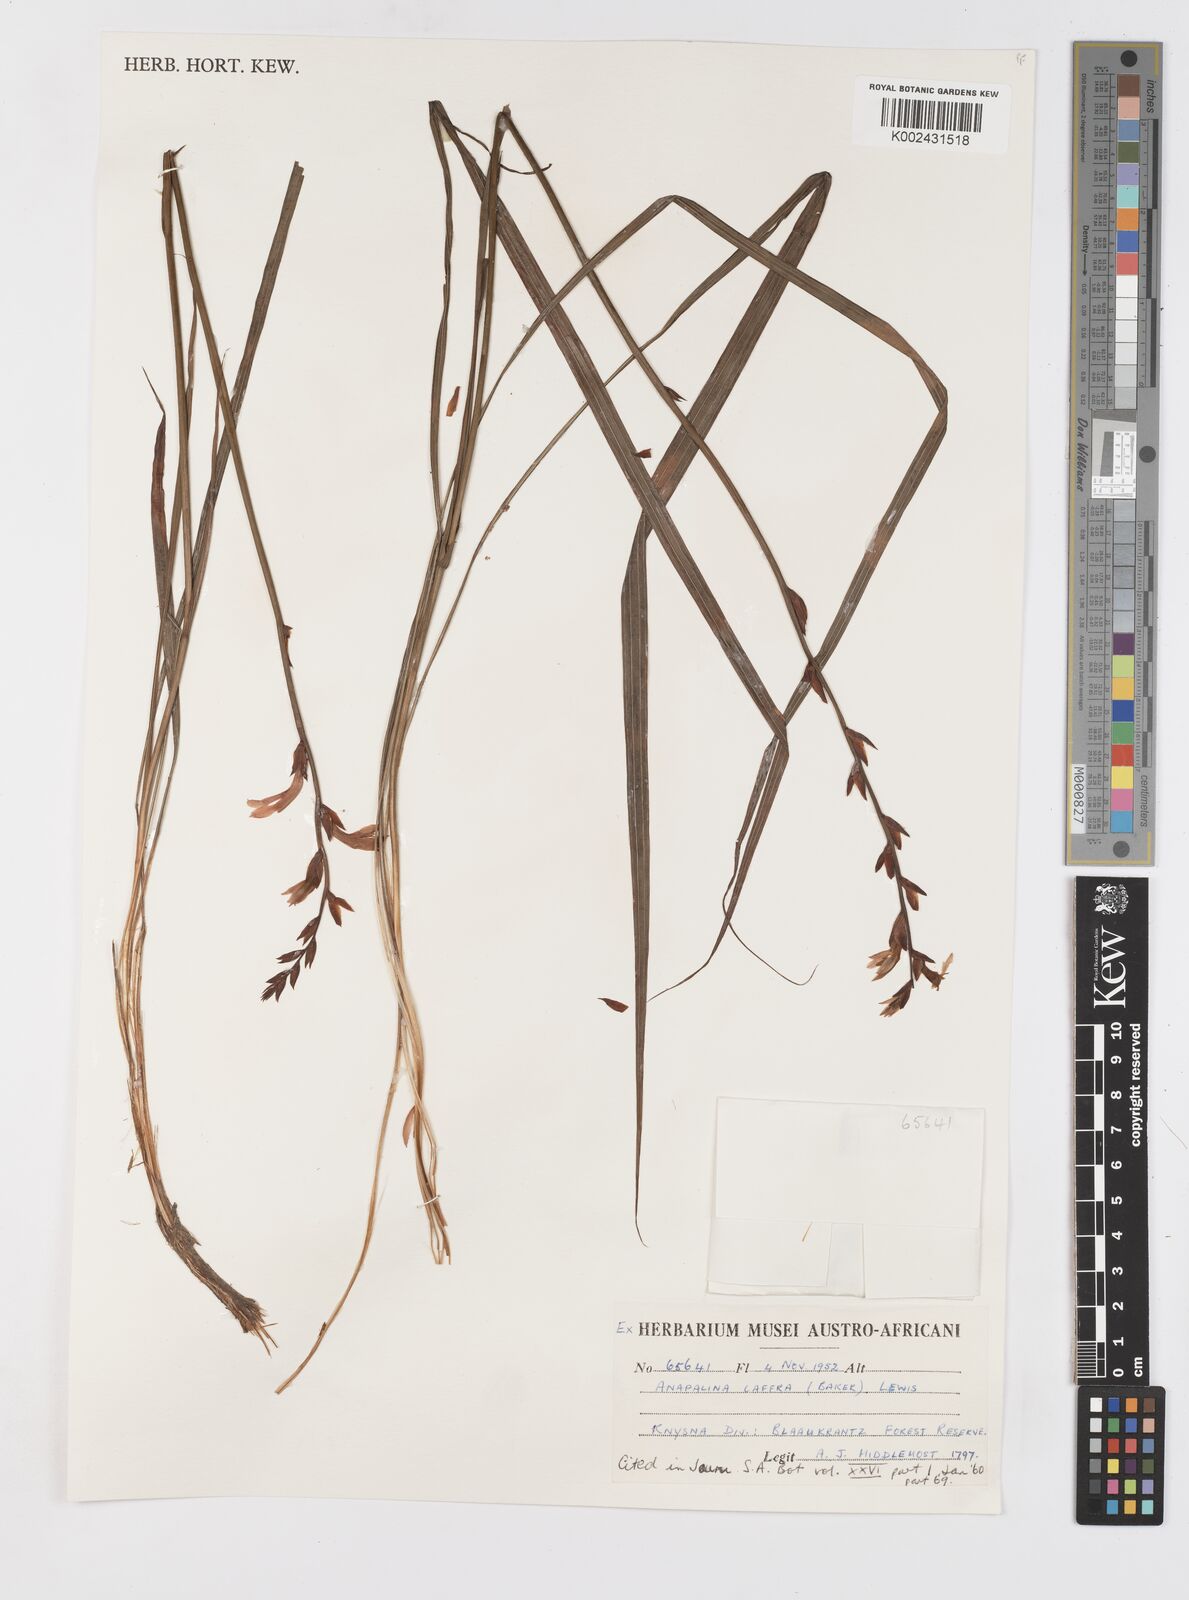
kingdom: Plantae
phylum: Tracheophyta
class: Liliopsida
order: Asparagales
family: Iridaceae
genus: Tritoniopsis
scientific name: Tritoniopsis caffra
